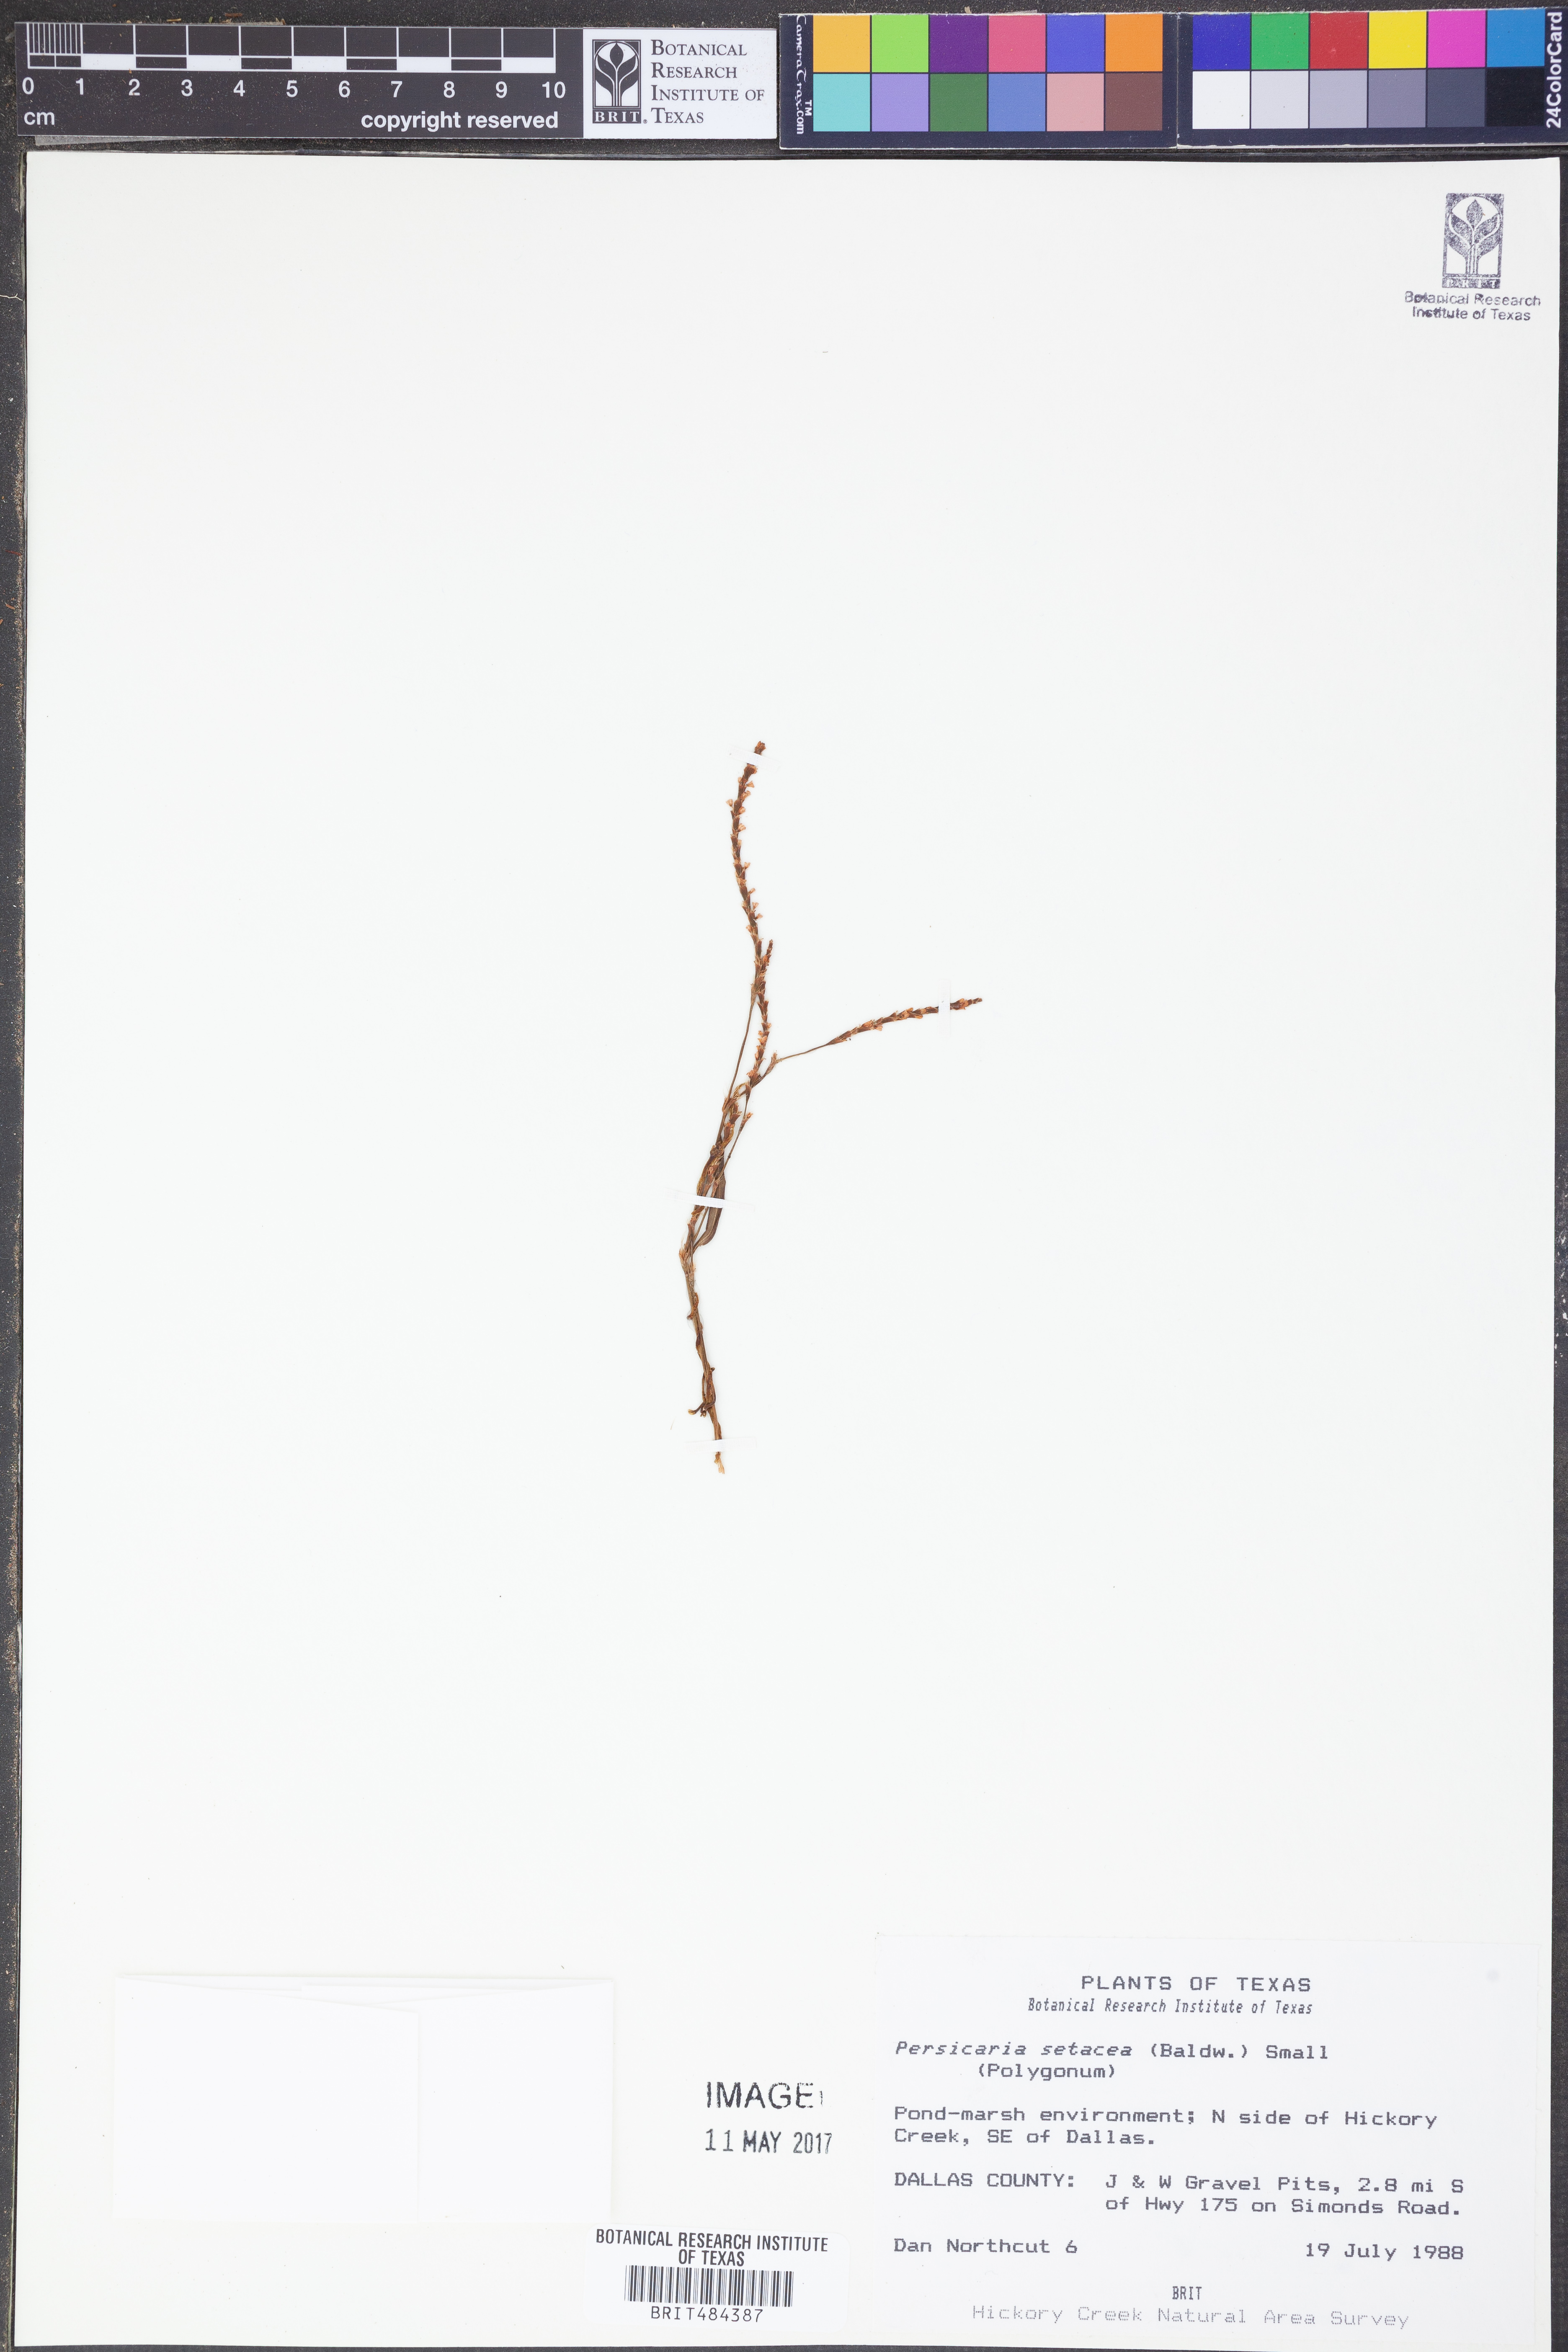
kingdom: Plantae
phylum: Tracheophyta
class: Magnoliopsida
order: Caryophyllales
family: Polygonaceae
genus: Persicaria
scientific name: Persicaria setacea
